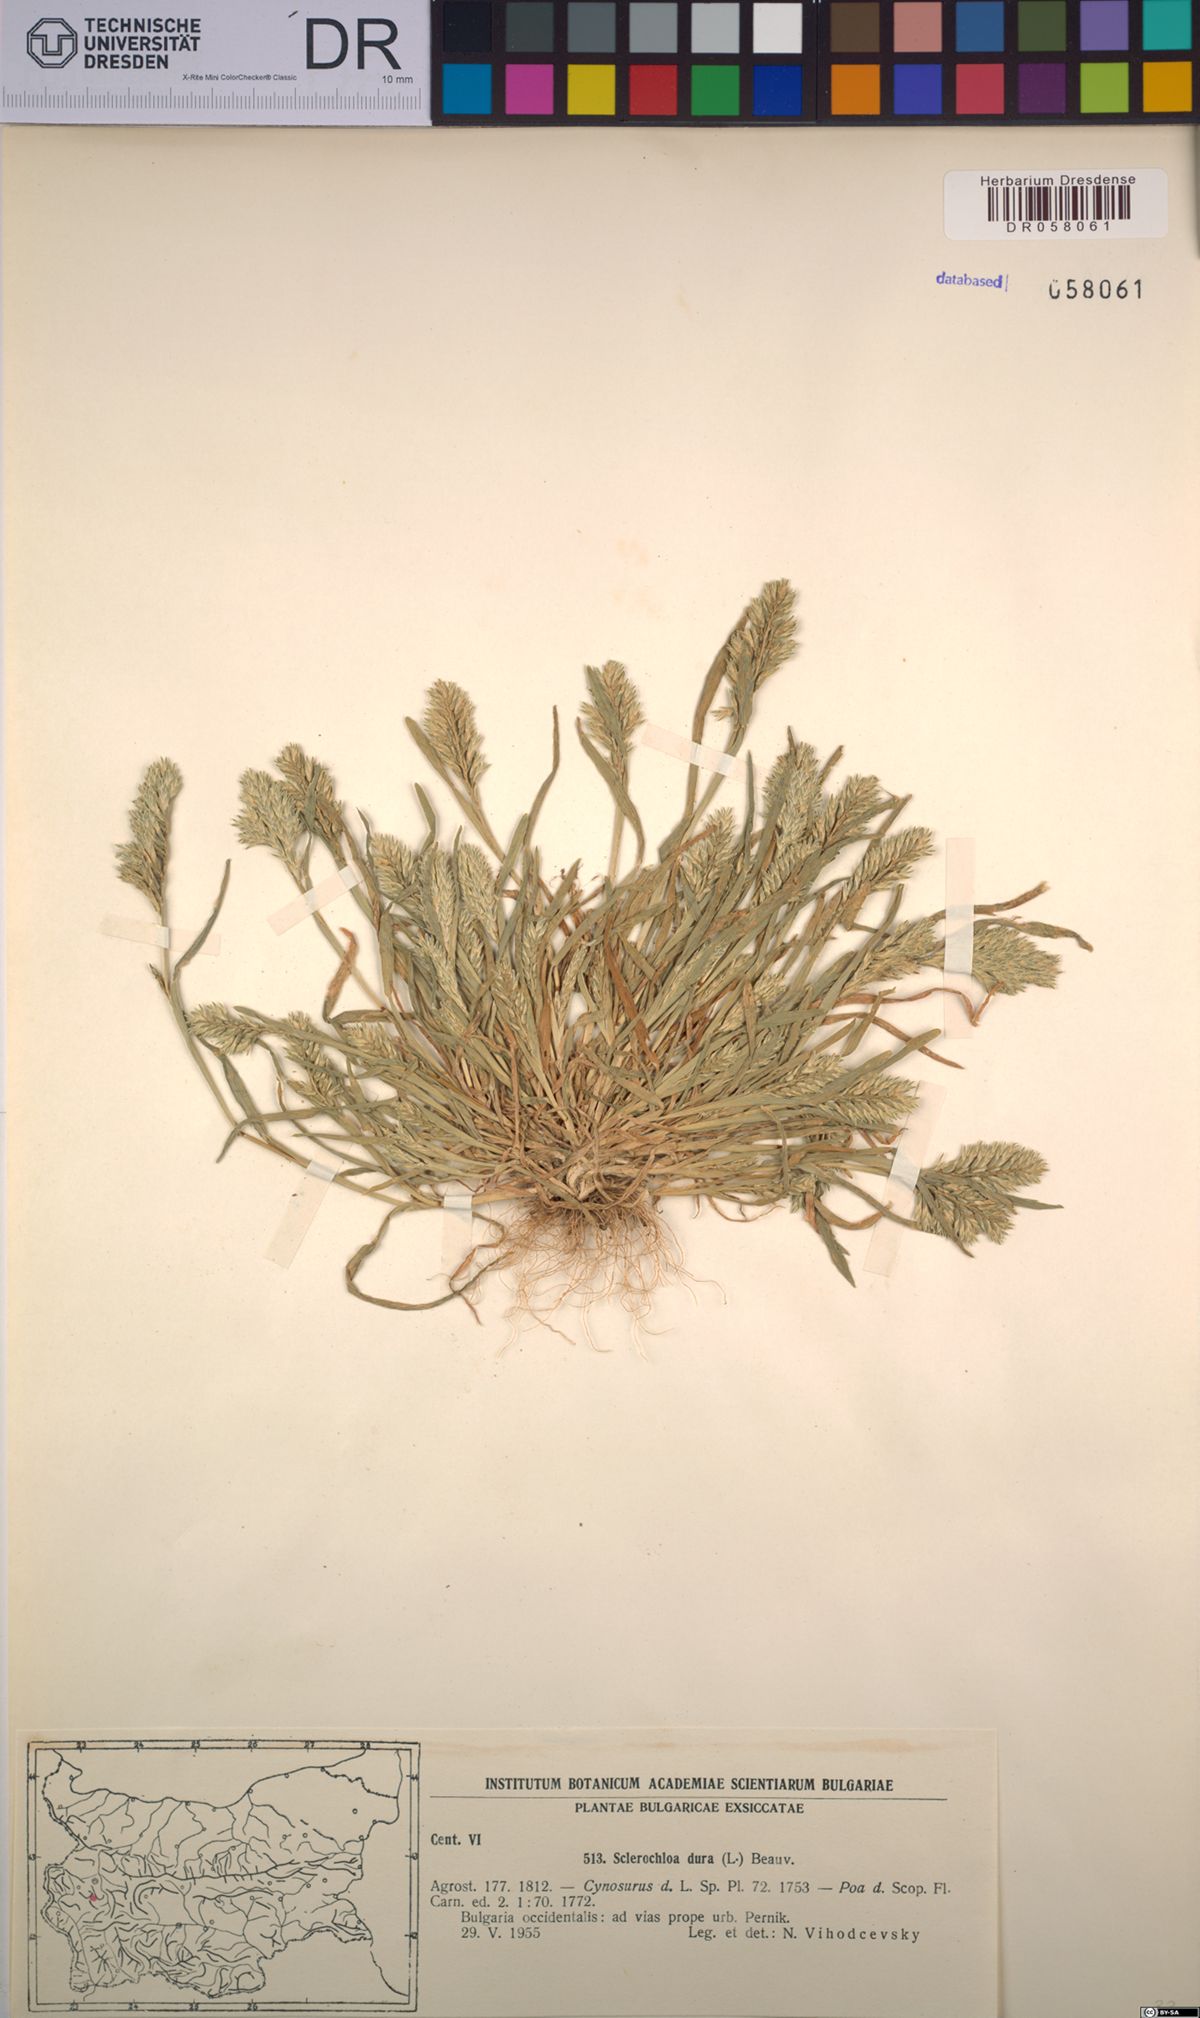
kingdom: Plantae
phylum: Tracheophyta
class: Liliopsida
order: Poales
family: Poaceae
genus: Sclerochloa
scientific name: Sclerochloa dura
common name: Common hardgrass
